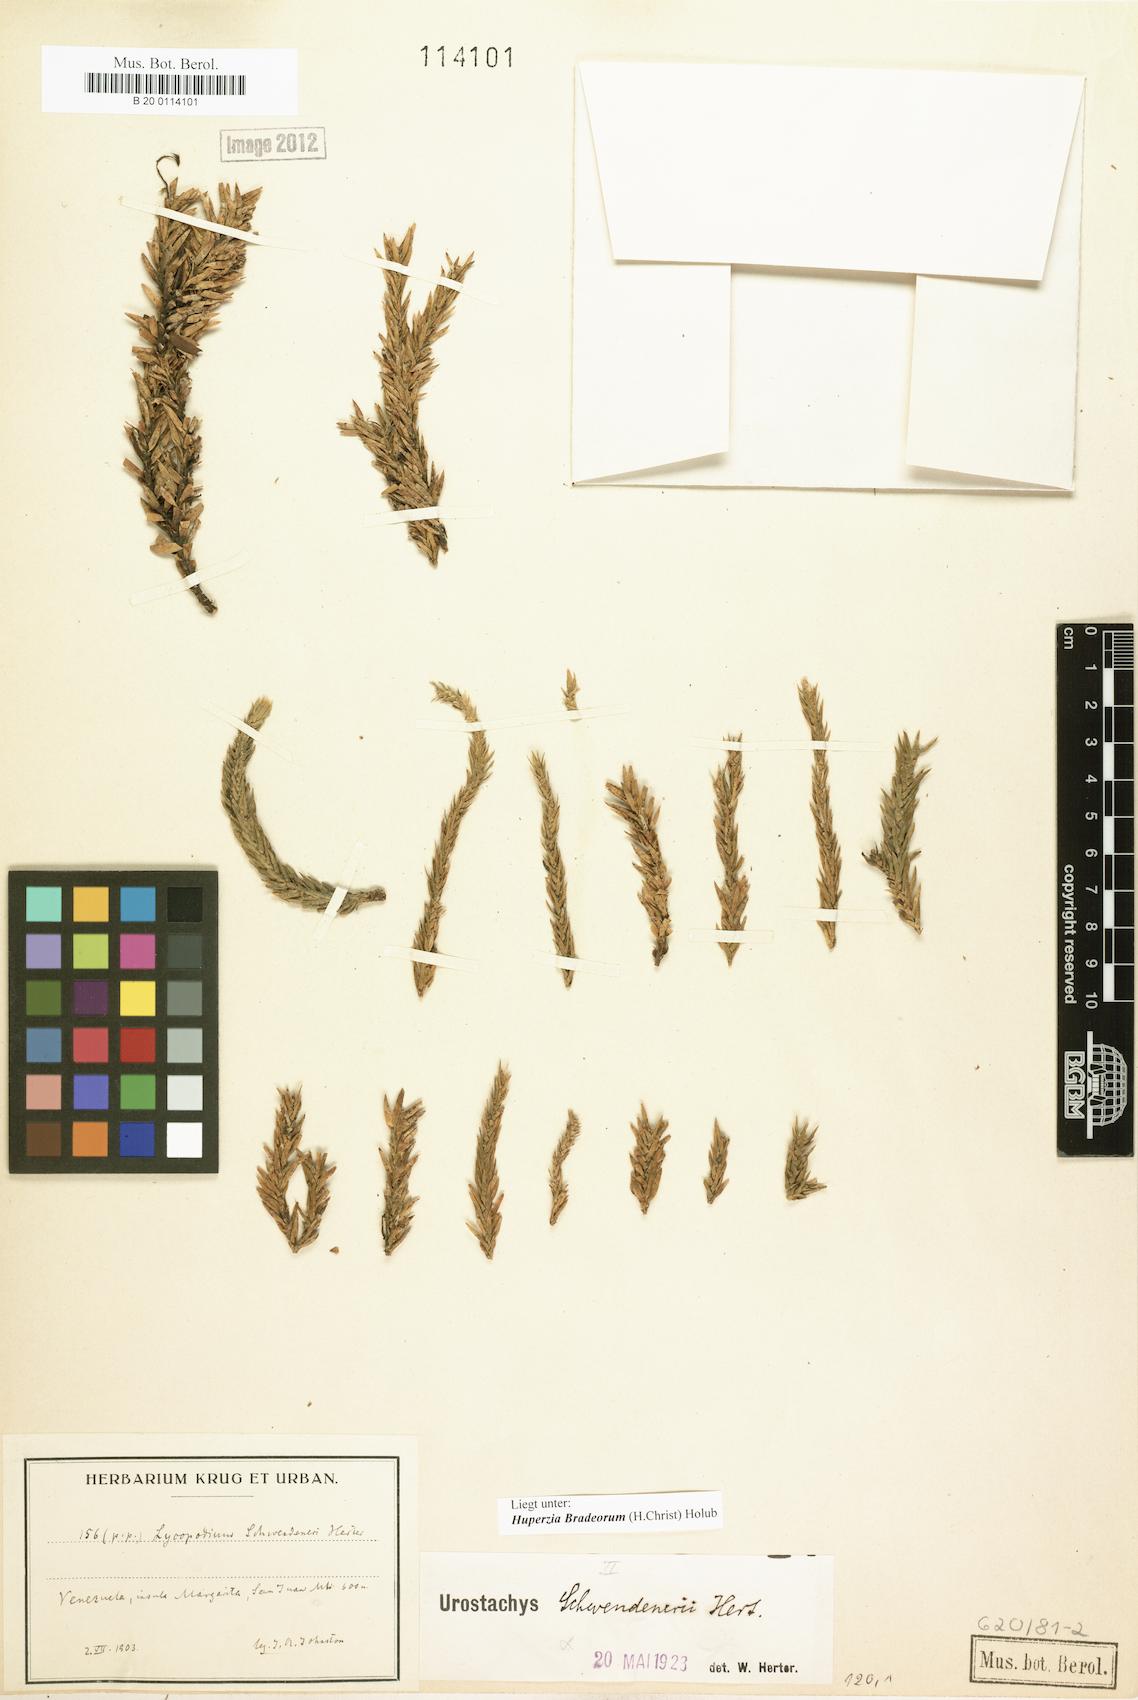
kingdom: Plantae
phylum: Tracheophyta
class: Lycopodiopsida
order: Lycopodiales
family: Lycopodiaceae
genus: Phlegmariurus
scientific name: Phlegmariurus bradeorum
